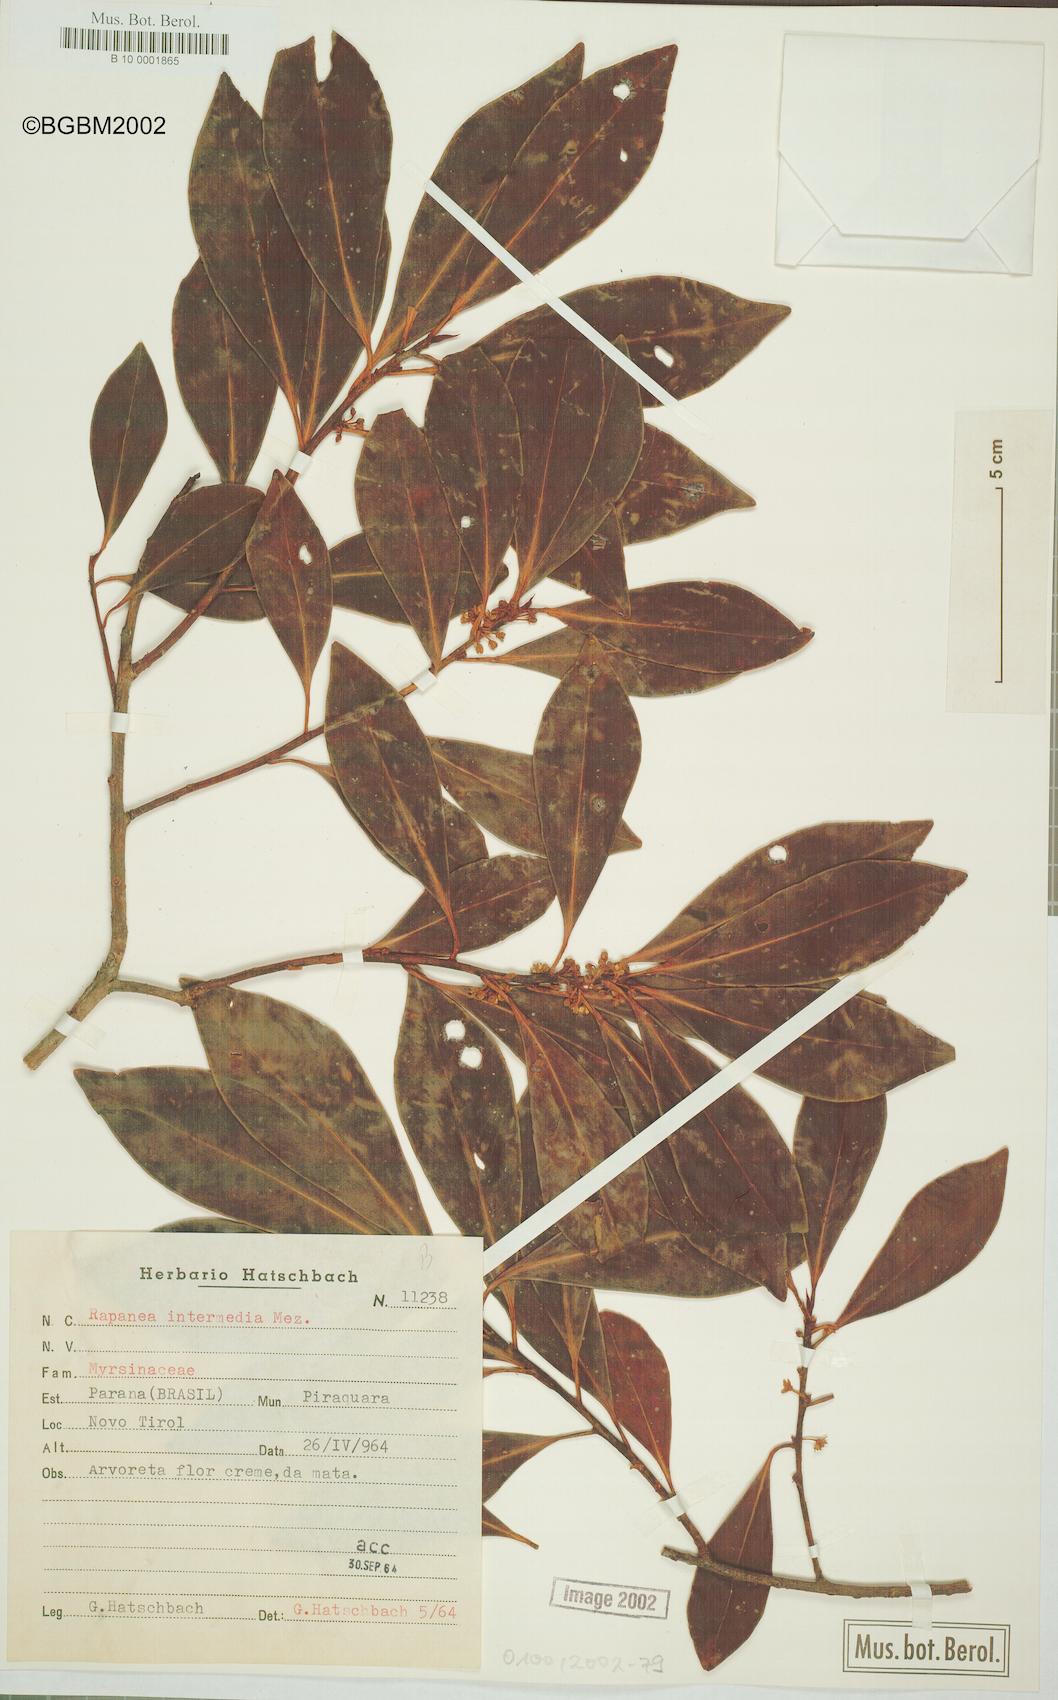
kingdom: Plantae
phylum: Tracheophyta
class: Magnoliopsida
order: Ericales
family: Primulaceae
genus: Myrsine
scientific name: Myrsine gardneriana
